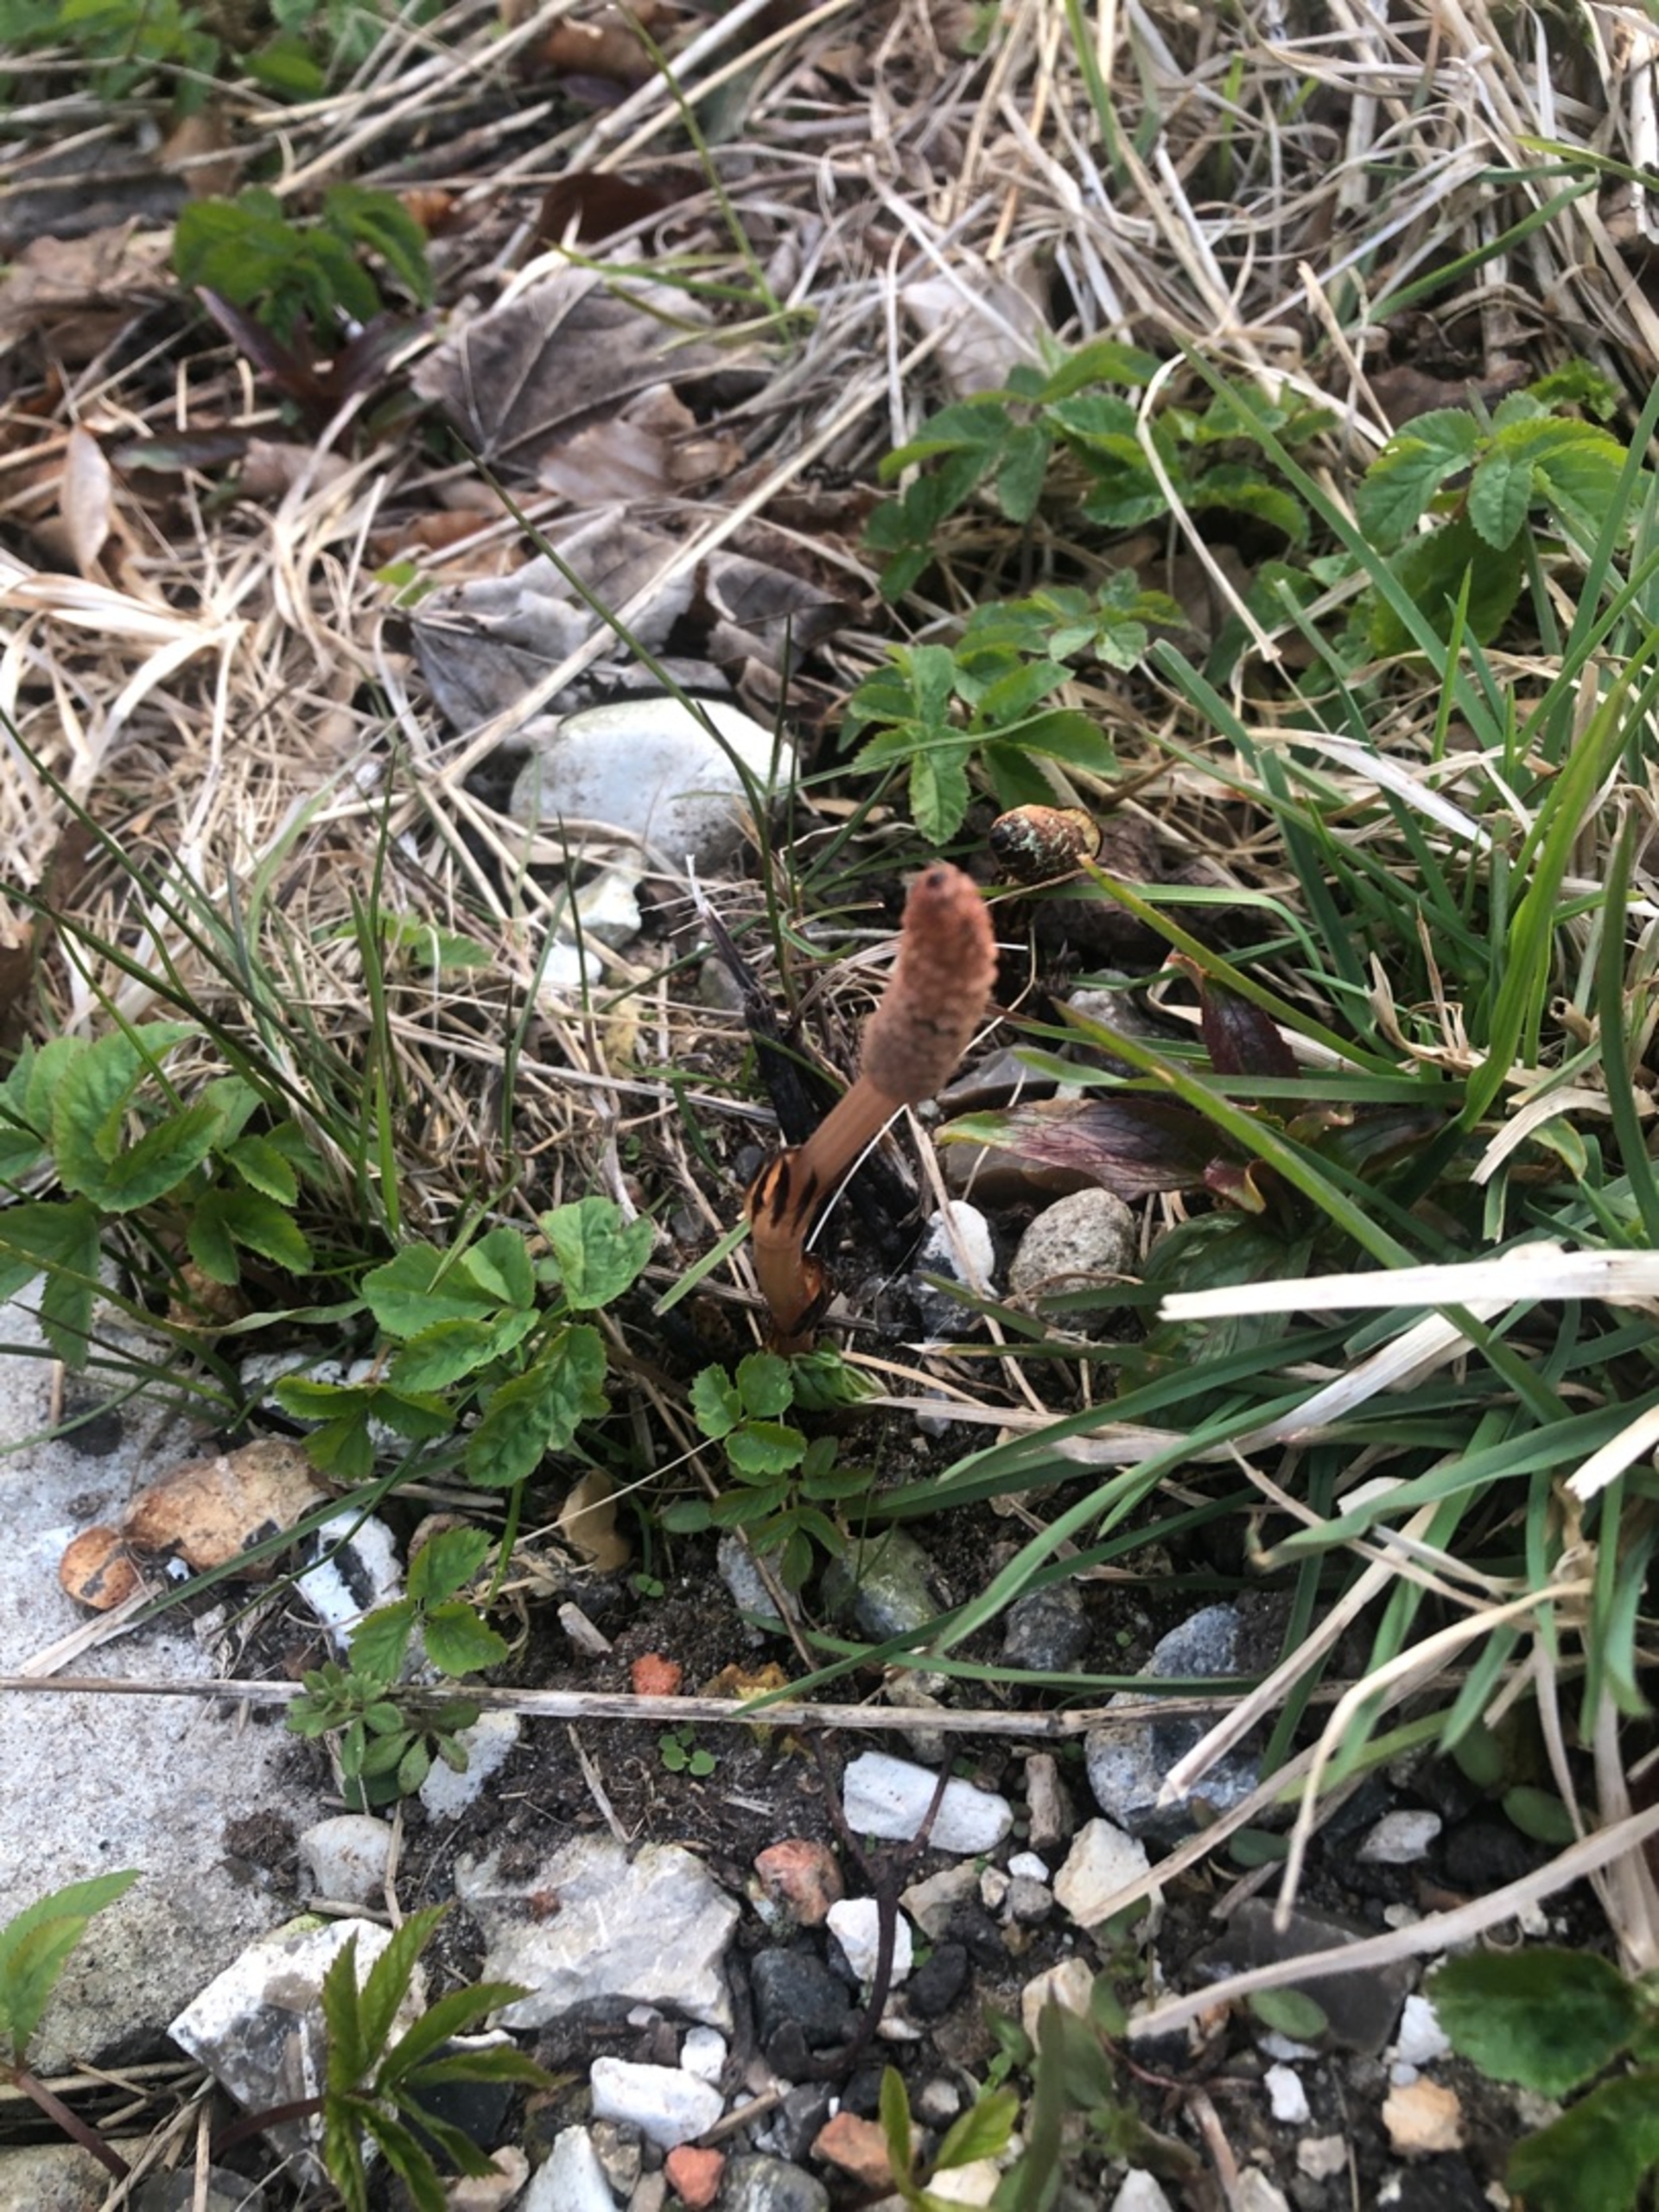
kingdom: Plantae
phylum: Tracheophyta
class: Polypodiopsida
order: Equisetales
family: Equisetaceae
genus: Equisetum
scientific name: Equisetum arvense
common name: Ager-padderok
